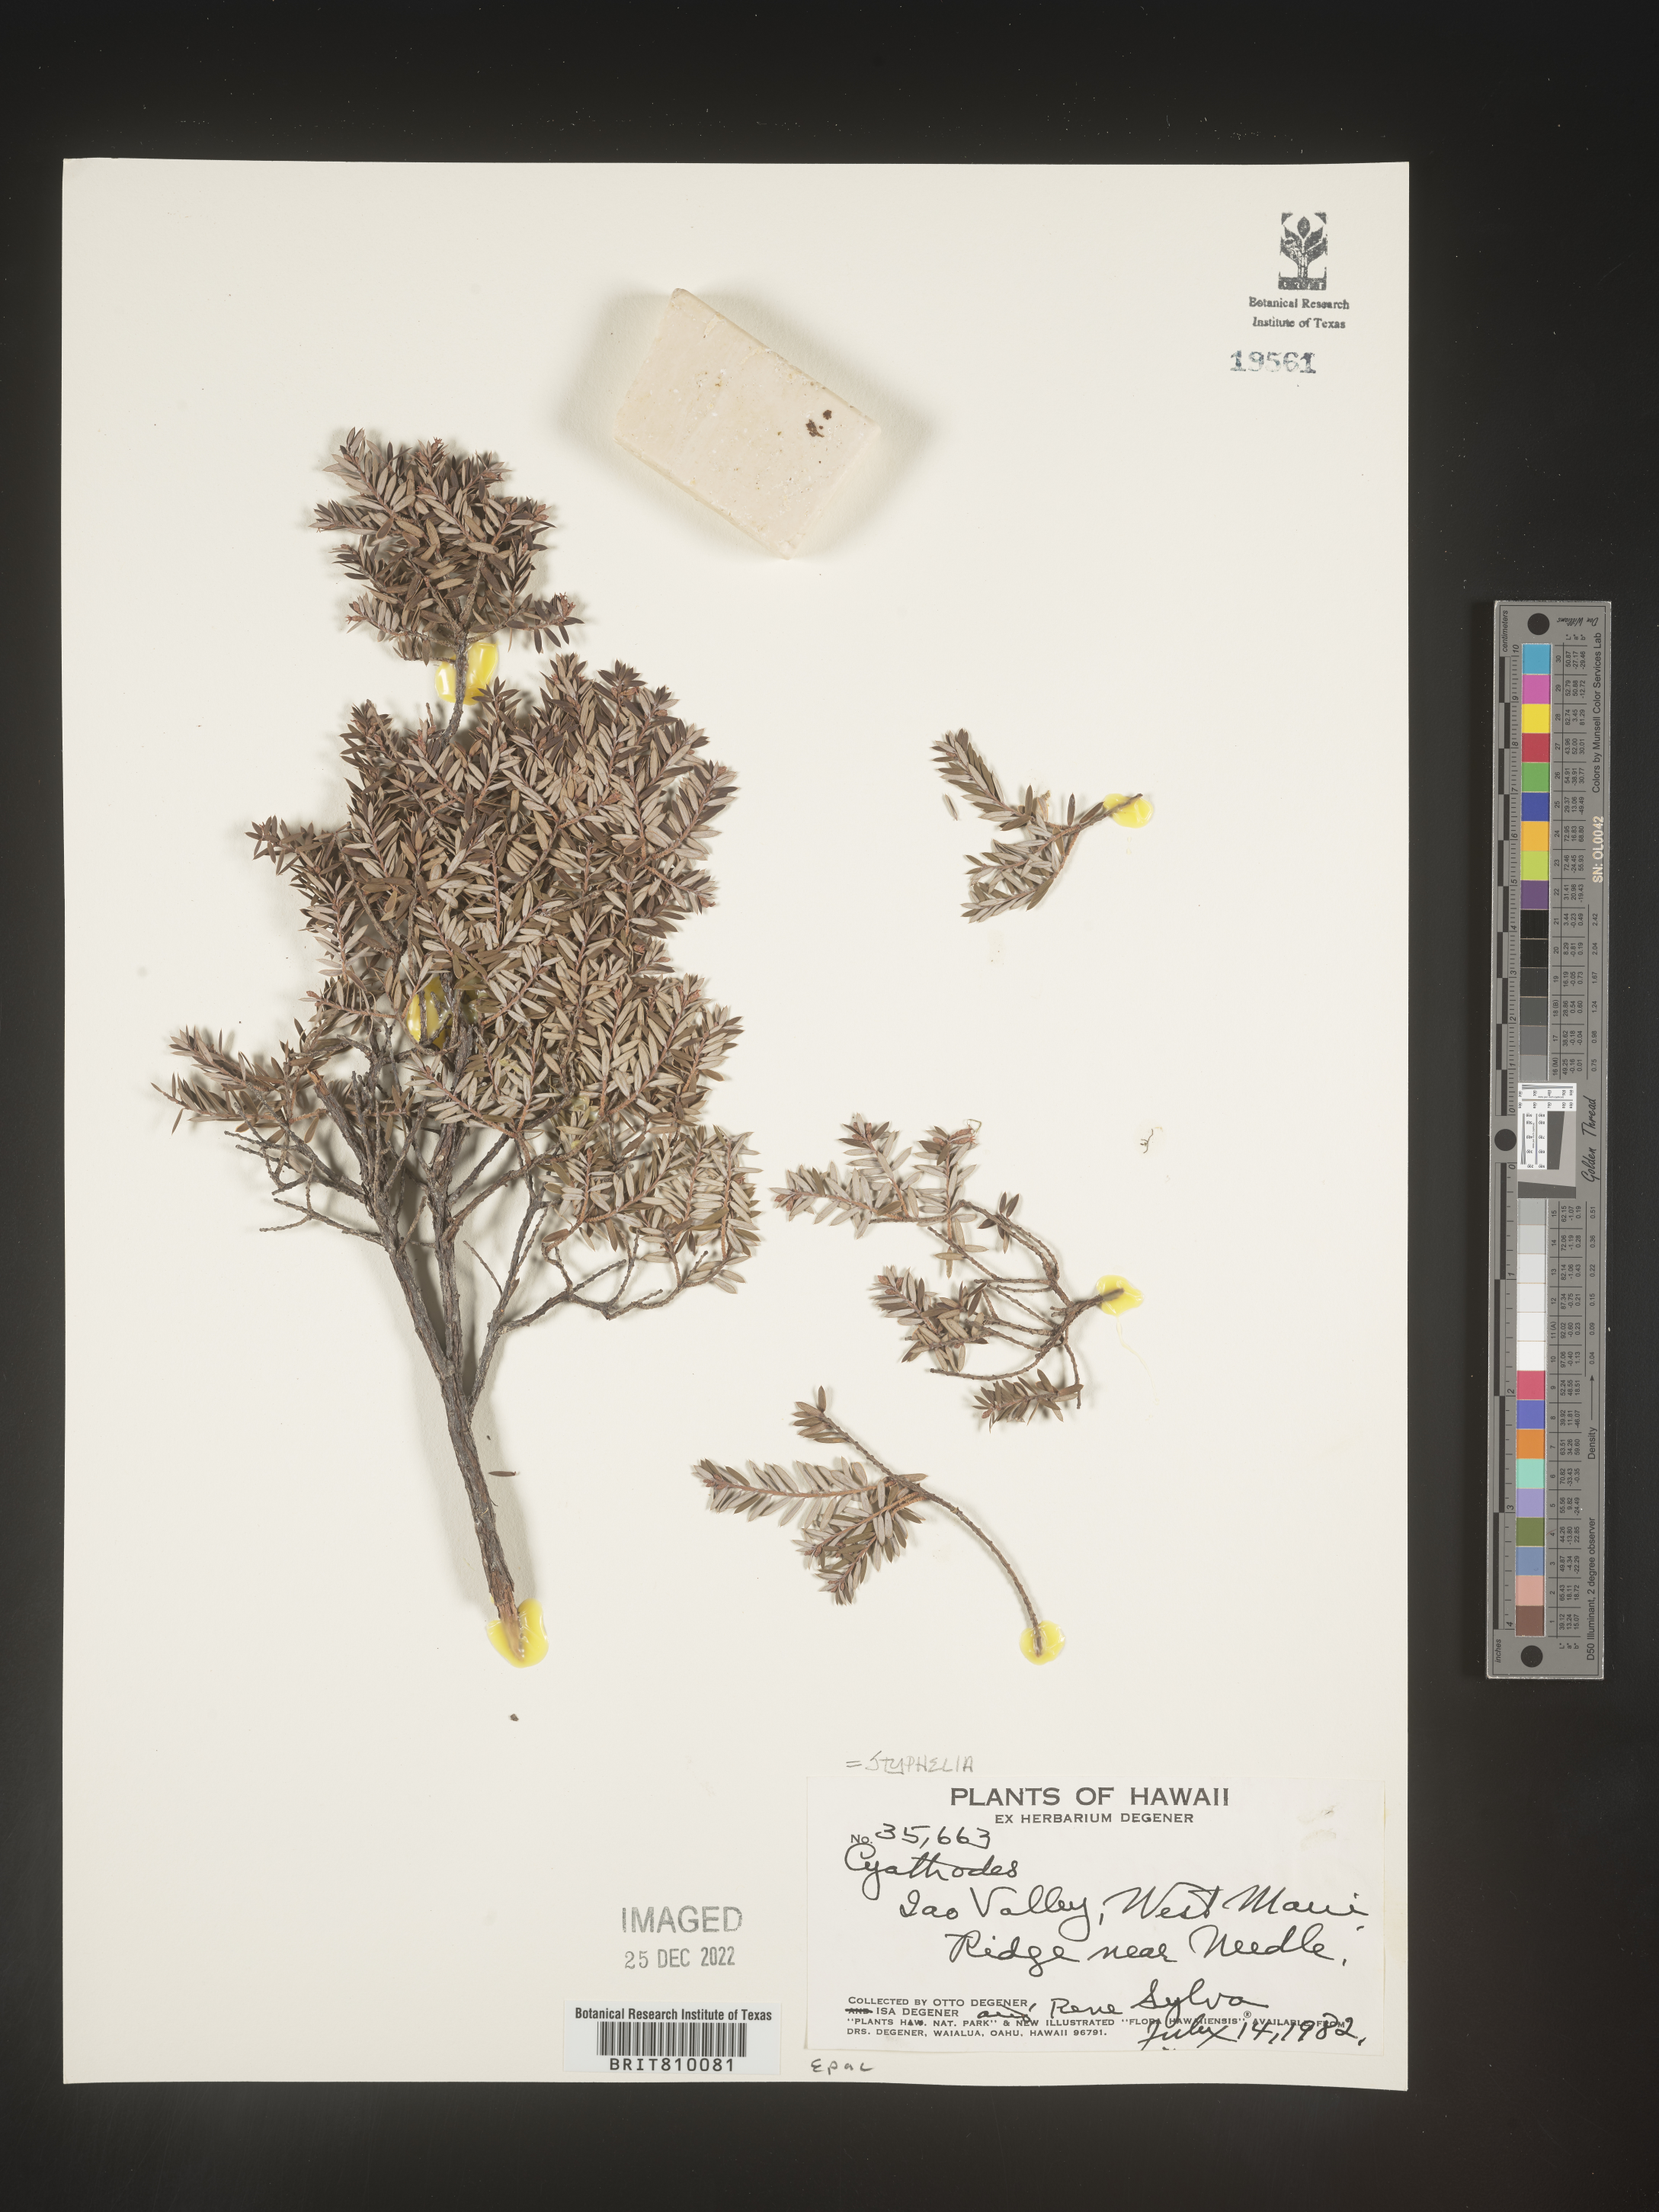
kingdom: Plantae
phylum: Tracheophyta
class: Magnoliopsida
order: Ericales
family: Ericaceae
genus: Styphelia
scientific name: Styphelia
